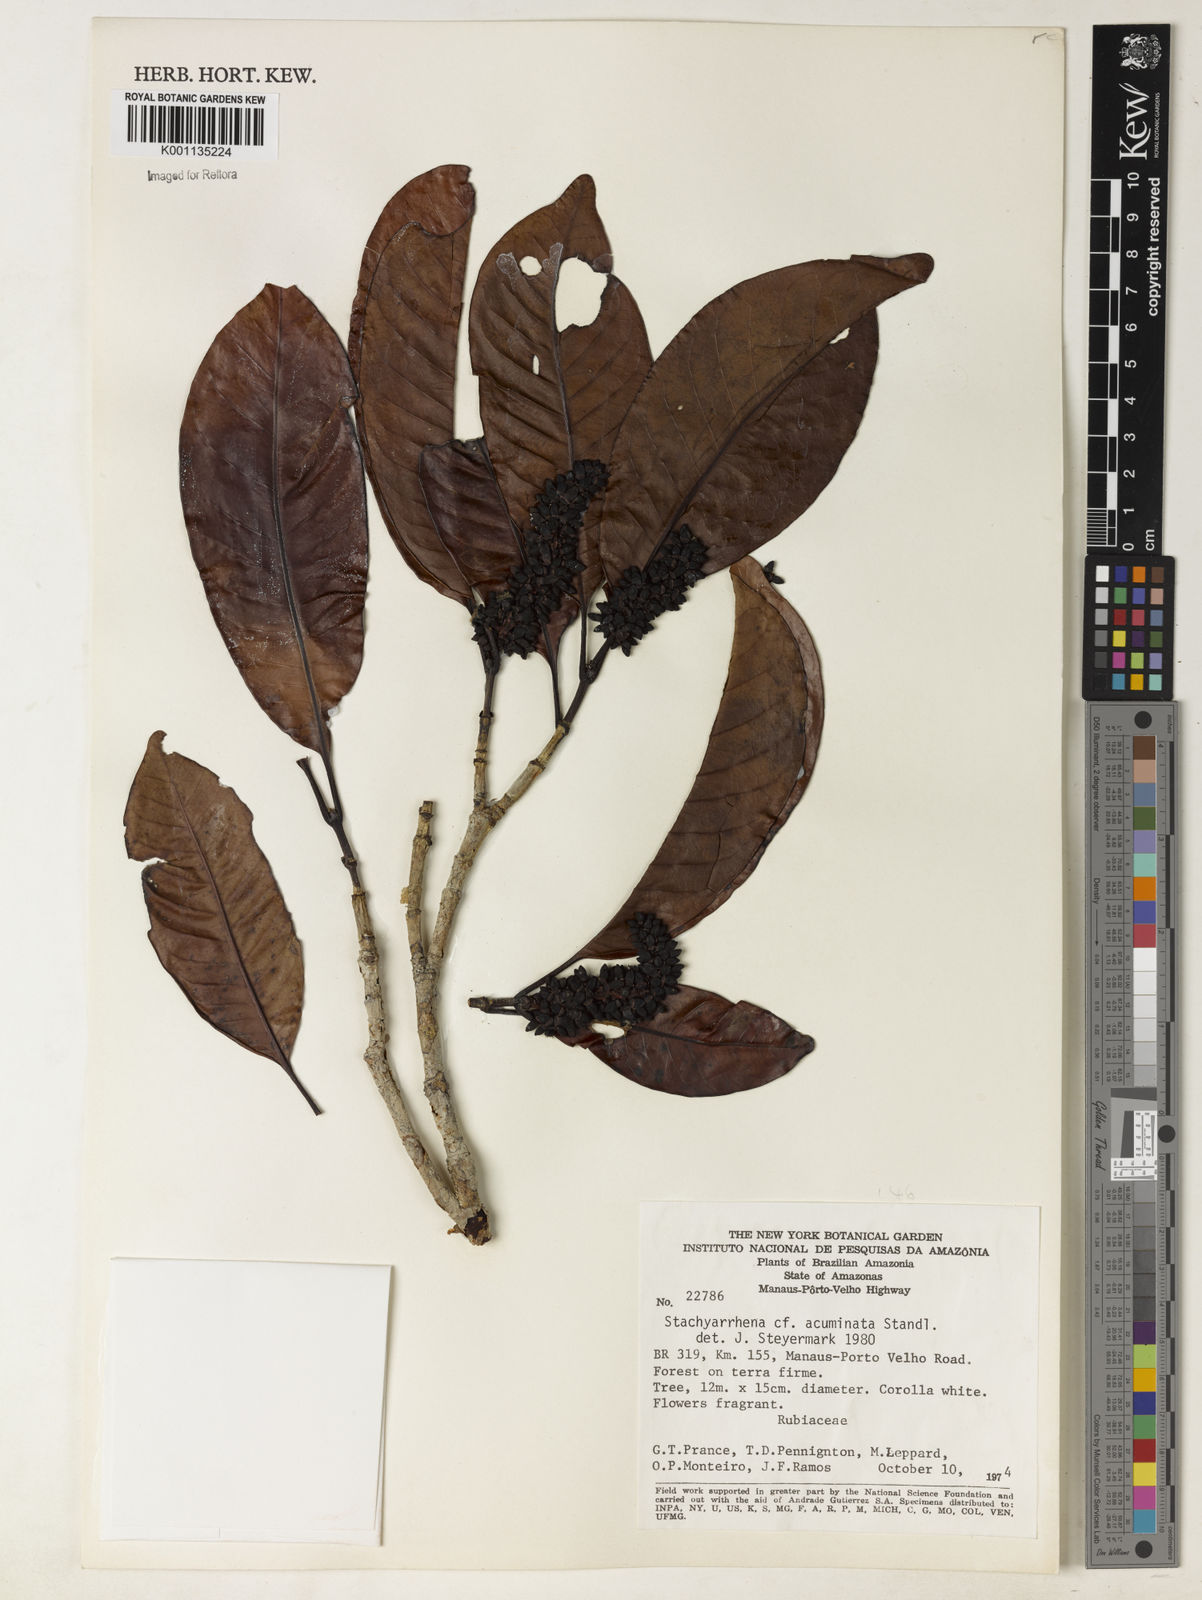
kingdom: Plantae
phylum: Tracheophyta
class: Magnoliopsida
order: Gentianales
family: Rubiaceae
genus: Stachyarrhena
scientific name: Stachyarrhena acuminata
